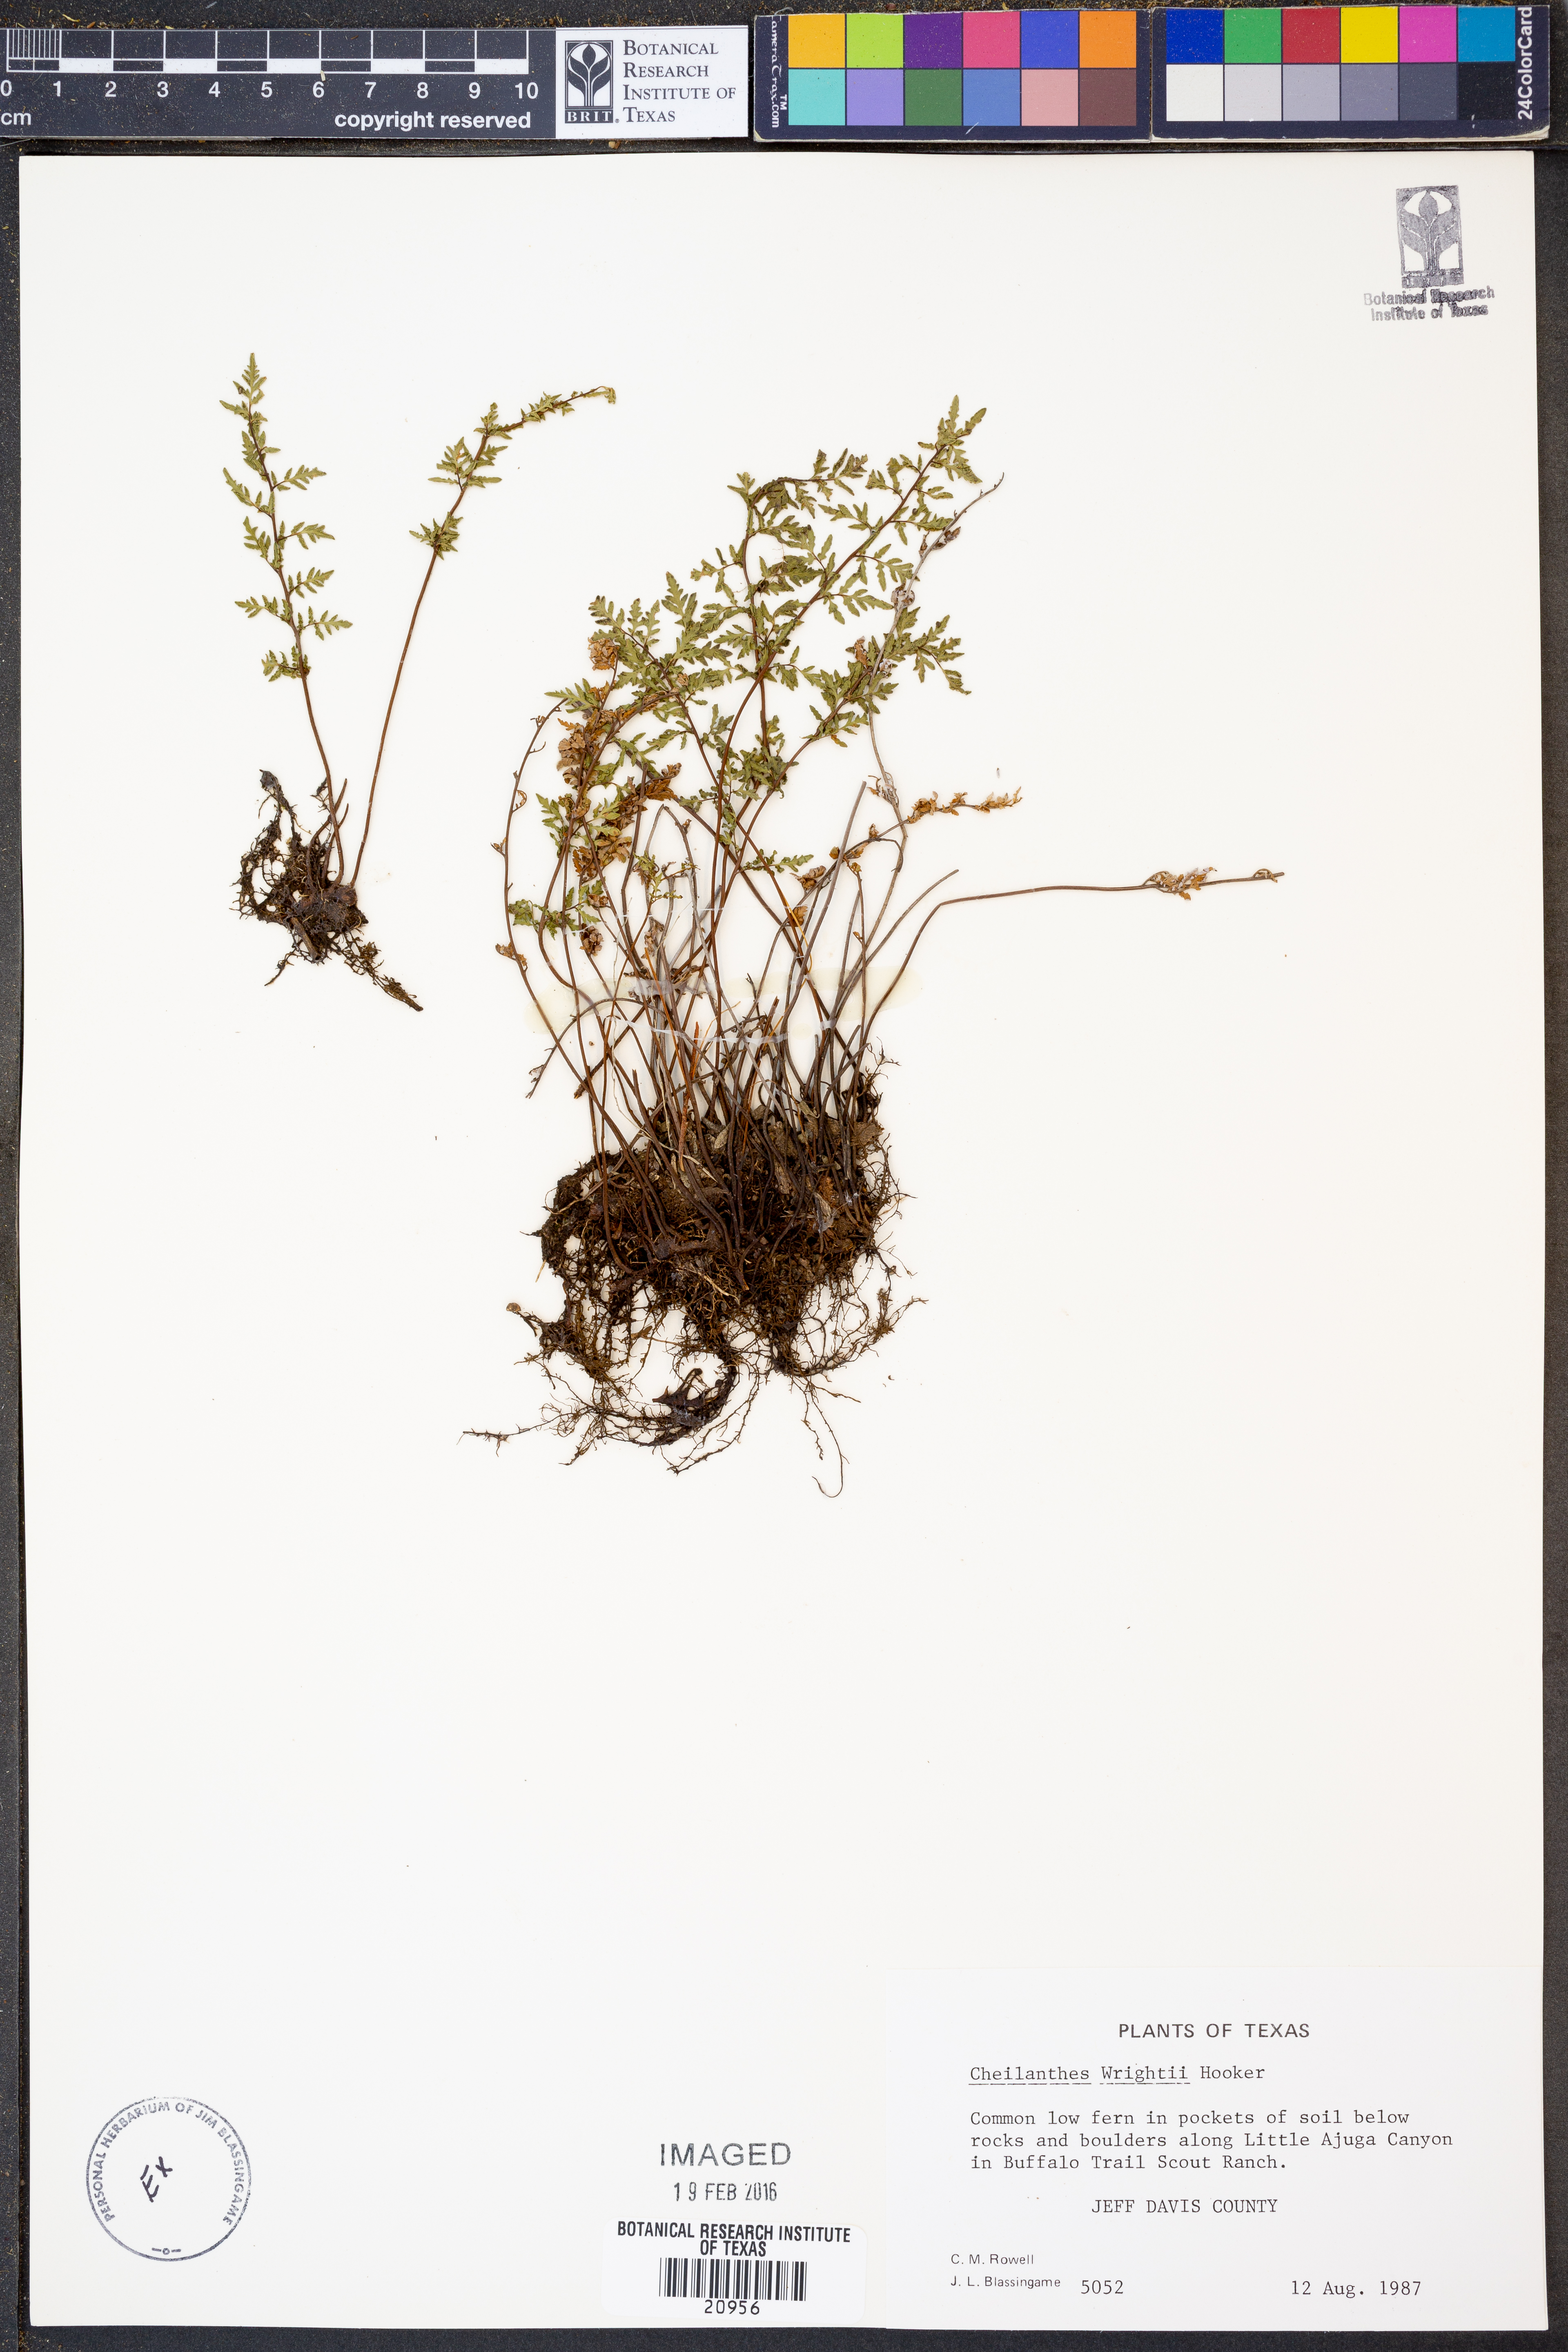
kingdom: Plantae
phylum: Tracheophyta
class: Polypodiopsida
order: Polypodiales
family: Pteridaceae
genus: Myriopteris
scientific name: Myriopteris wrightii
